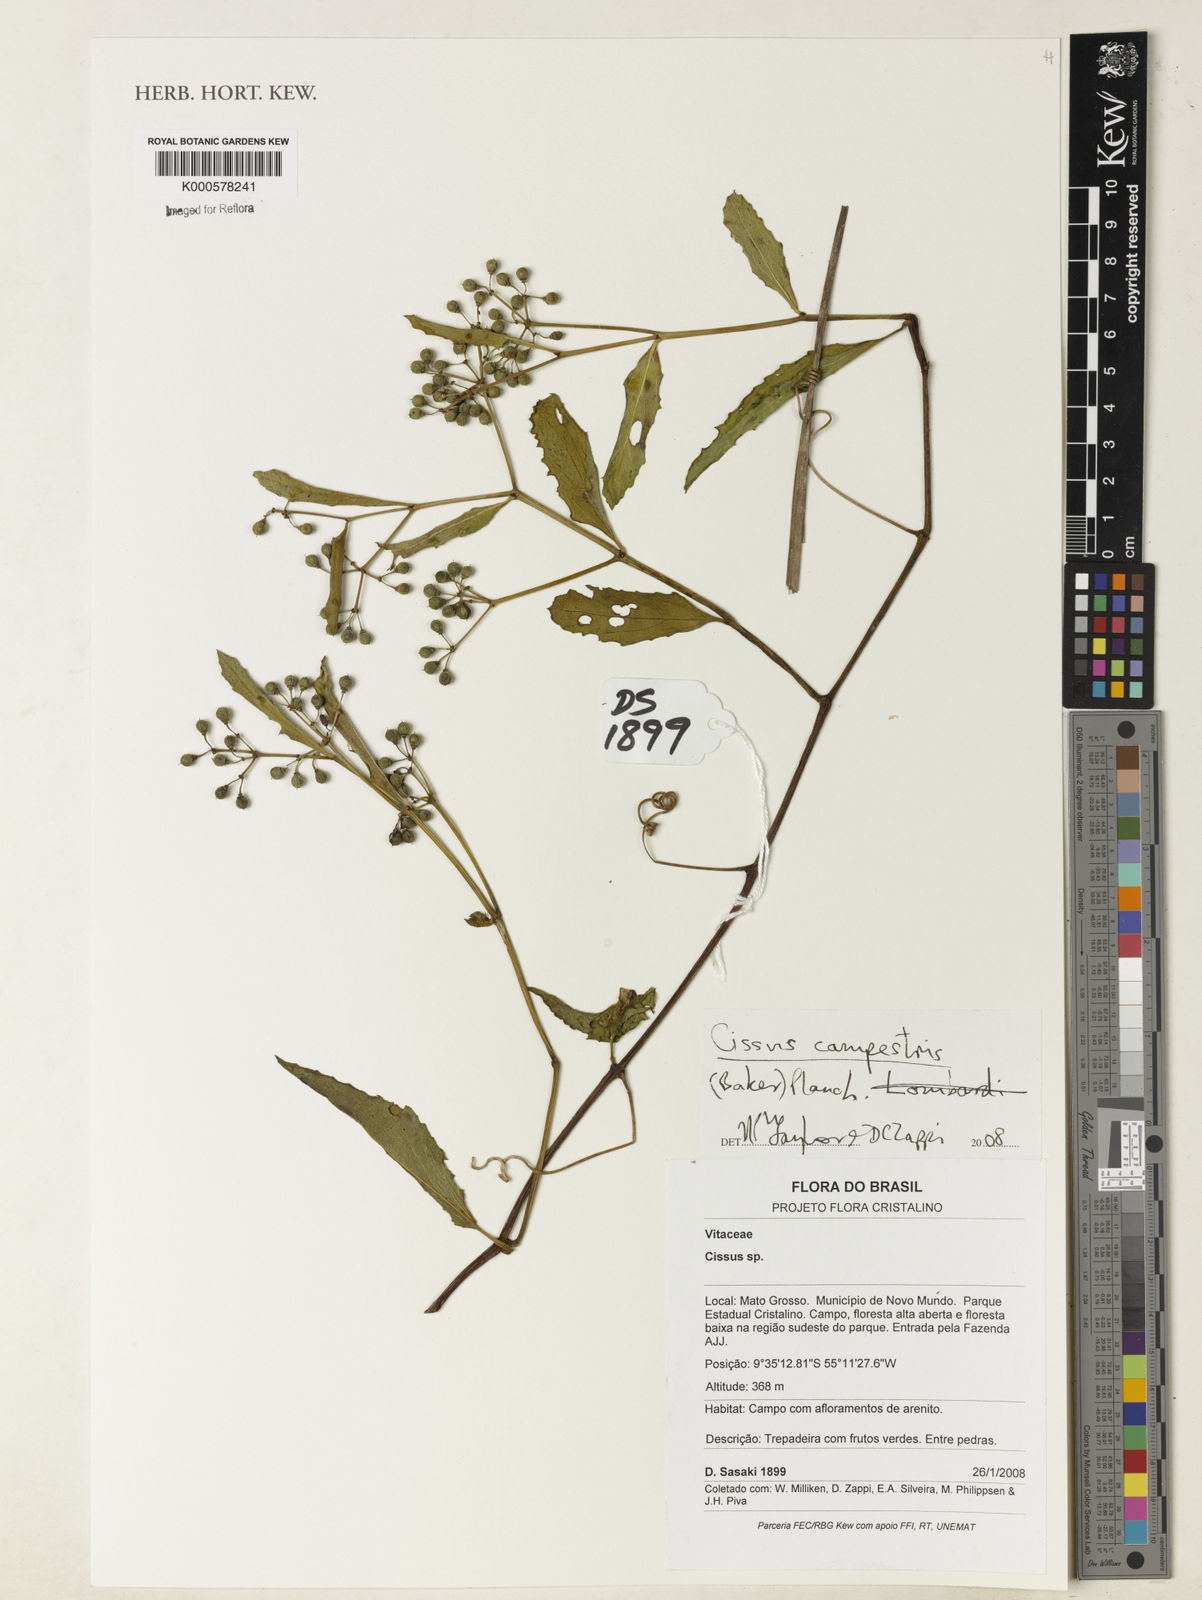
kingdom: Plantae
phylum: Tracheophyta
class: Magnoliopsida
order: Vitales
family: Vitaceae
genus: Cissus
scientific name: Cissus campestris
